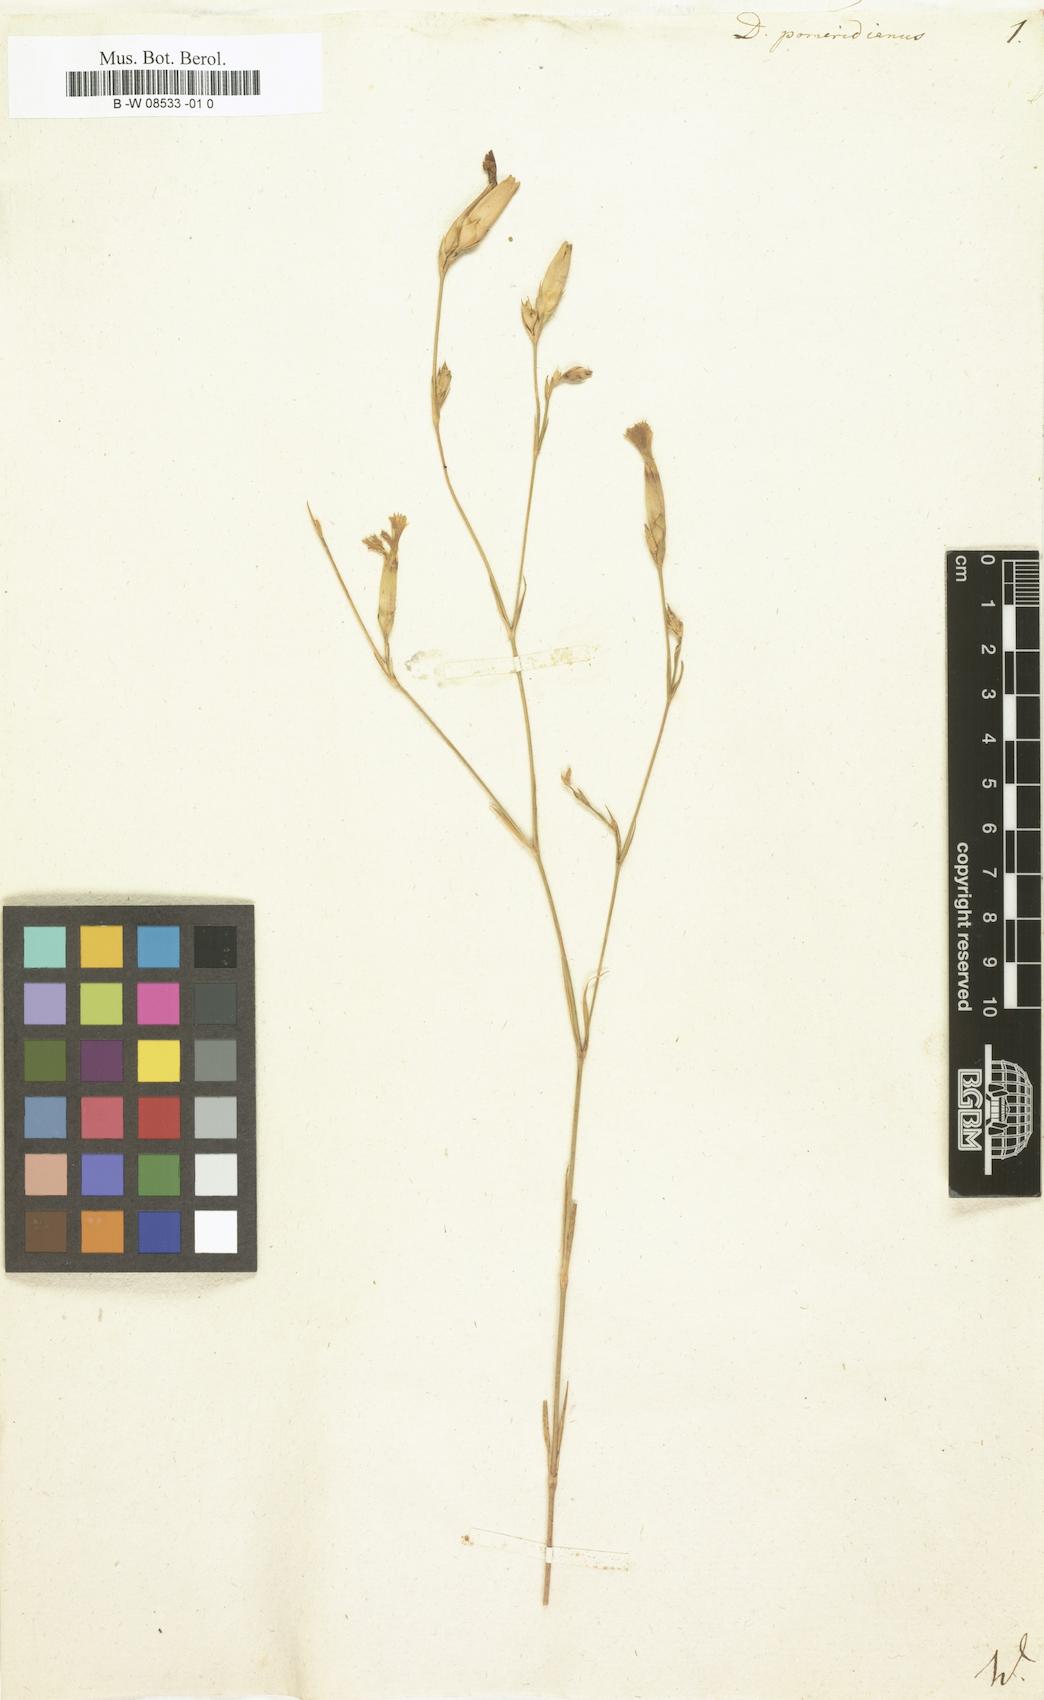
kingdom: Plantae
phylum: Tracheophyta
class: Magnoliopsida
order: Caryophyllales
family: Caryophyllaceae
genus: Dianthus
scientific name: Dianthus leptopetalus
